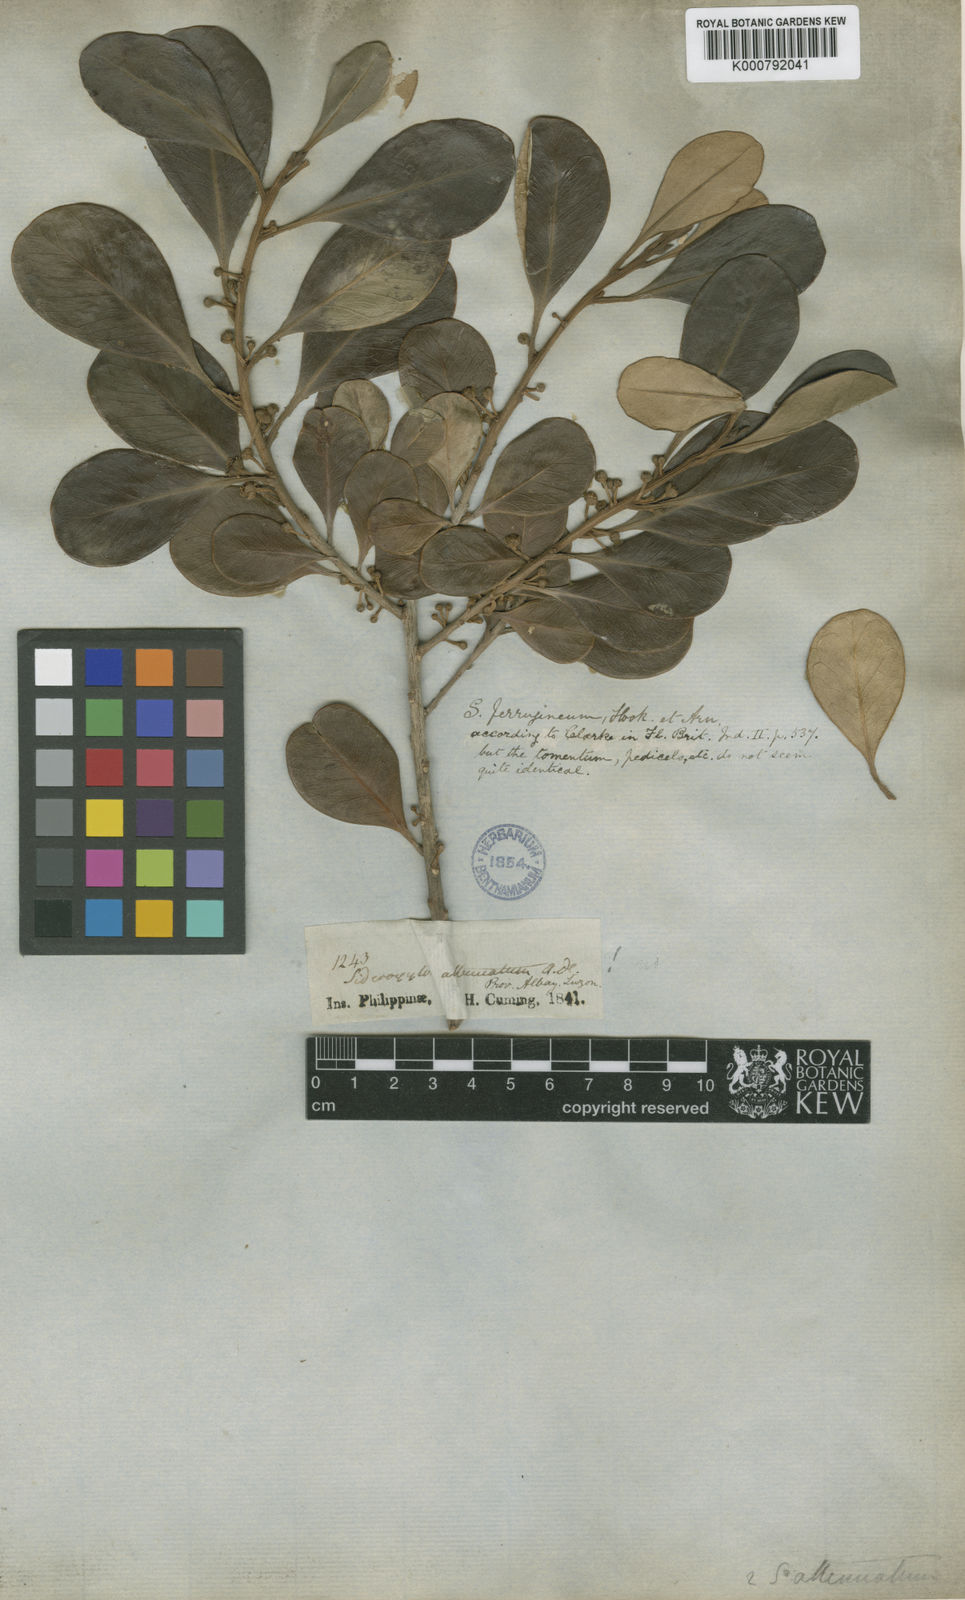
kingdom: Plantae
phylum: Tracheophyta
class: Magnoliopsida
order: Ericales
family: Sapotaceae
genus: Planchonella
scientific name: Planchonella obovata
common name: Black-ash
